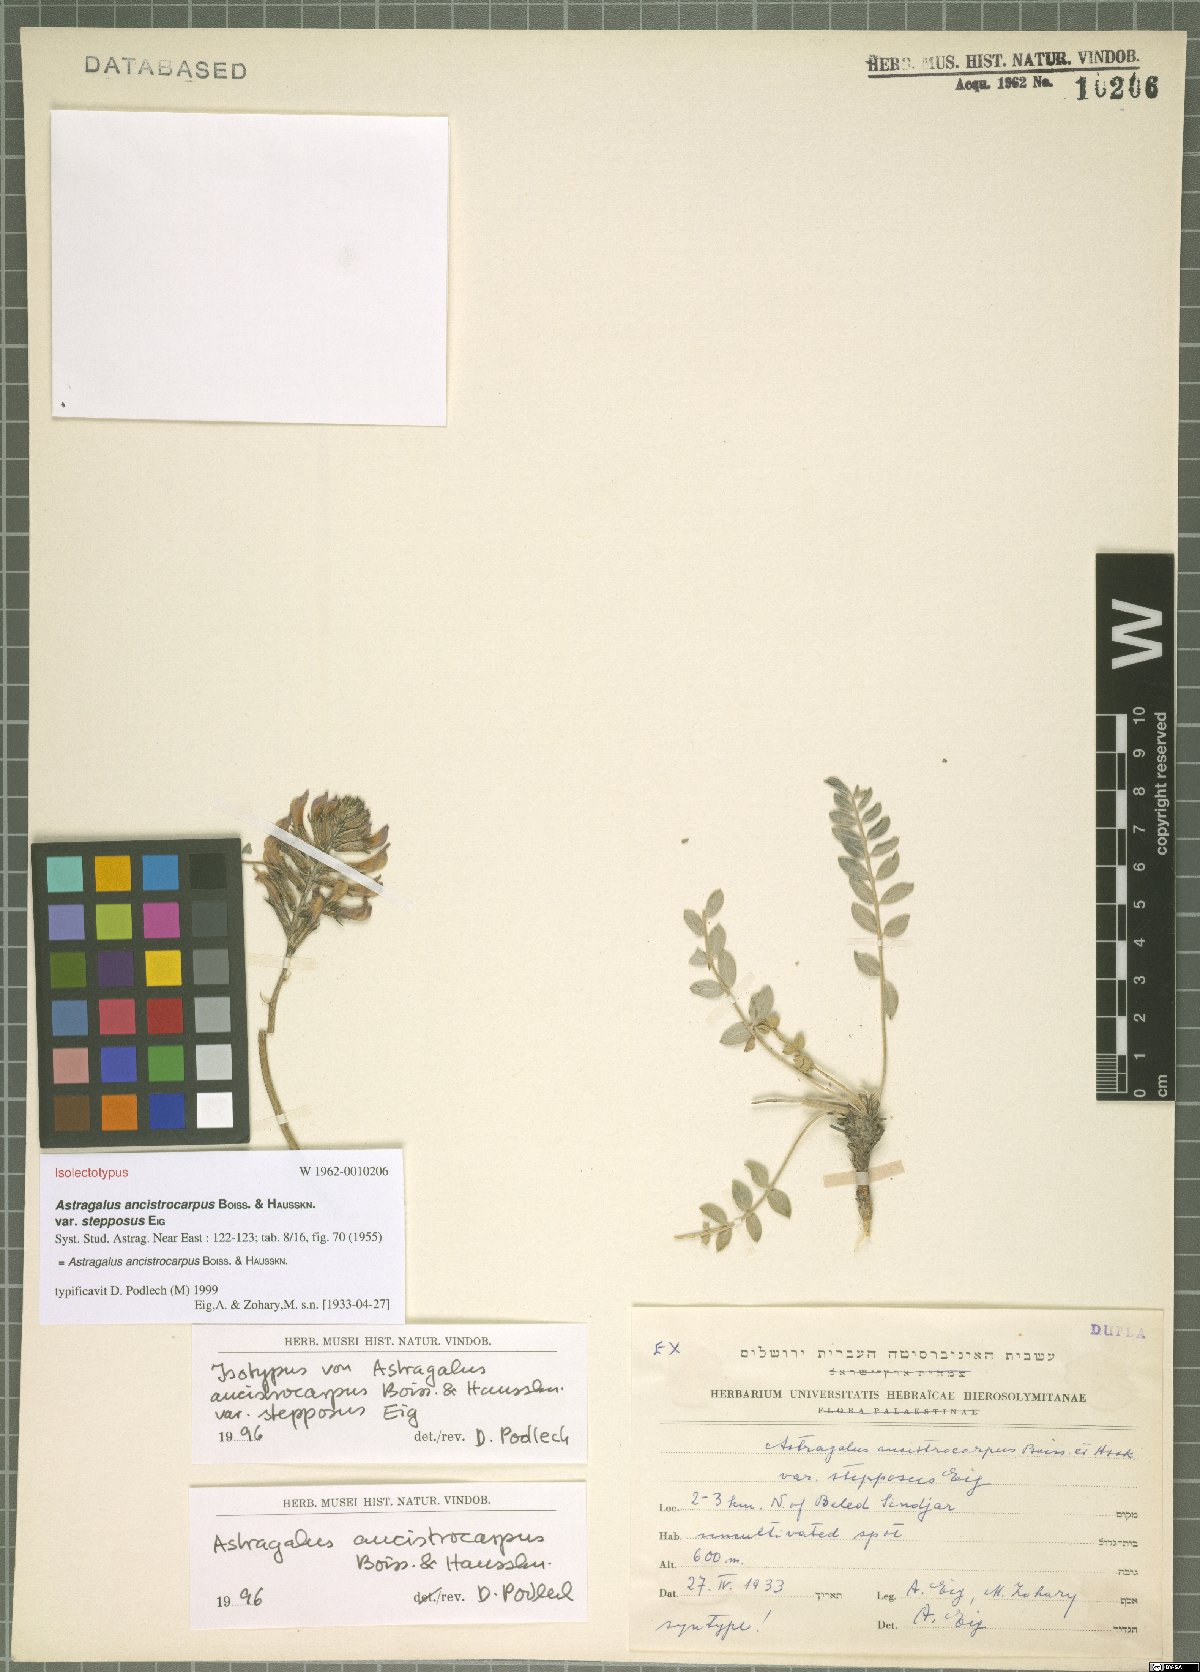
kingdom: Plantae
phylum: Tracheophyta
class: Magnoliopsida
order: Fabales
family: Fabaceae
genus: Astragalus
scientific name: Astragalus ancistrocarpus
